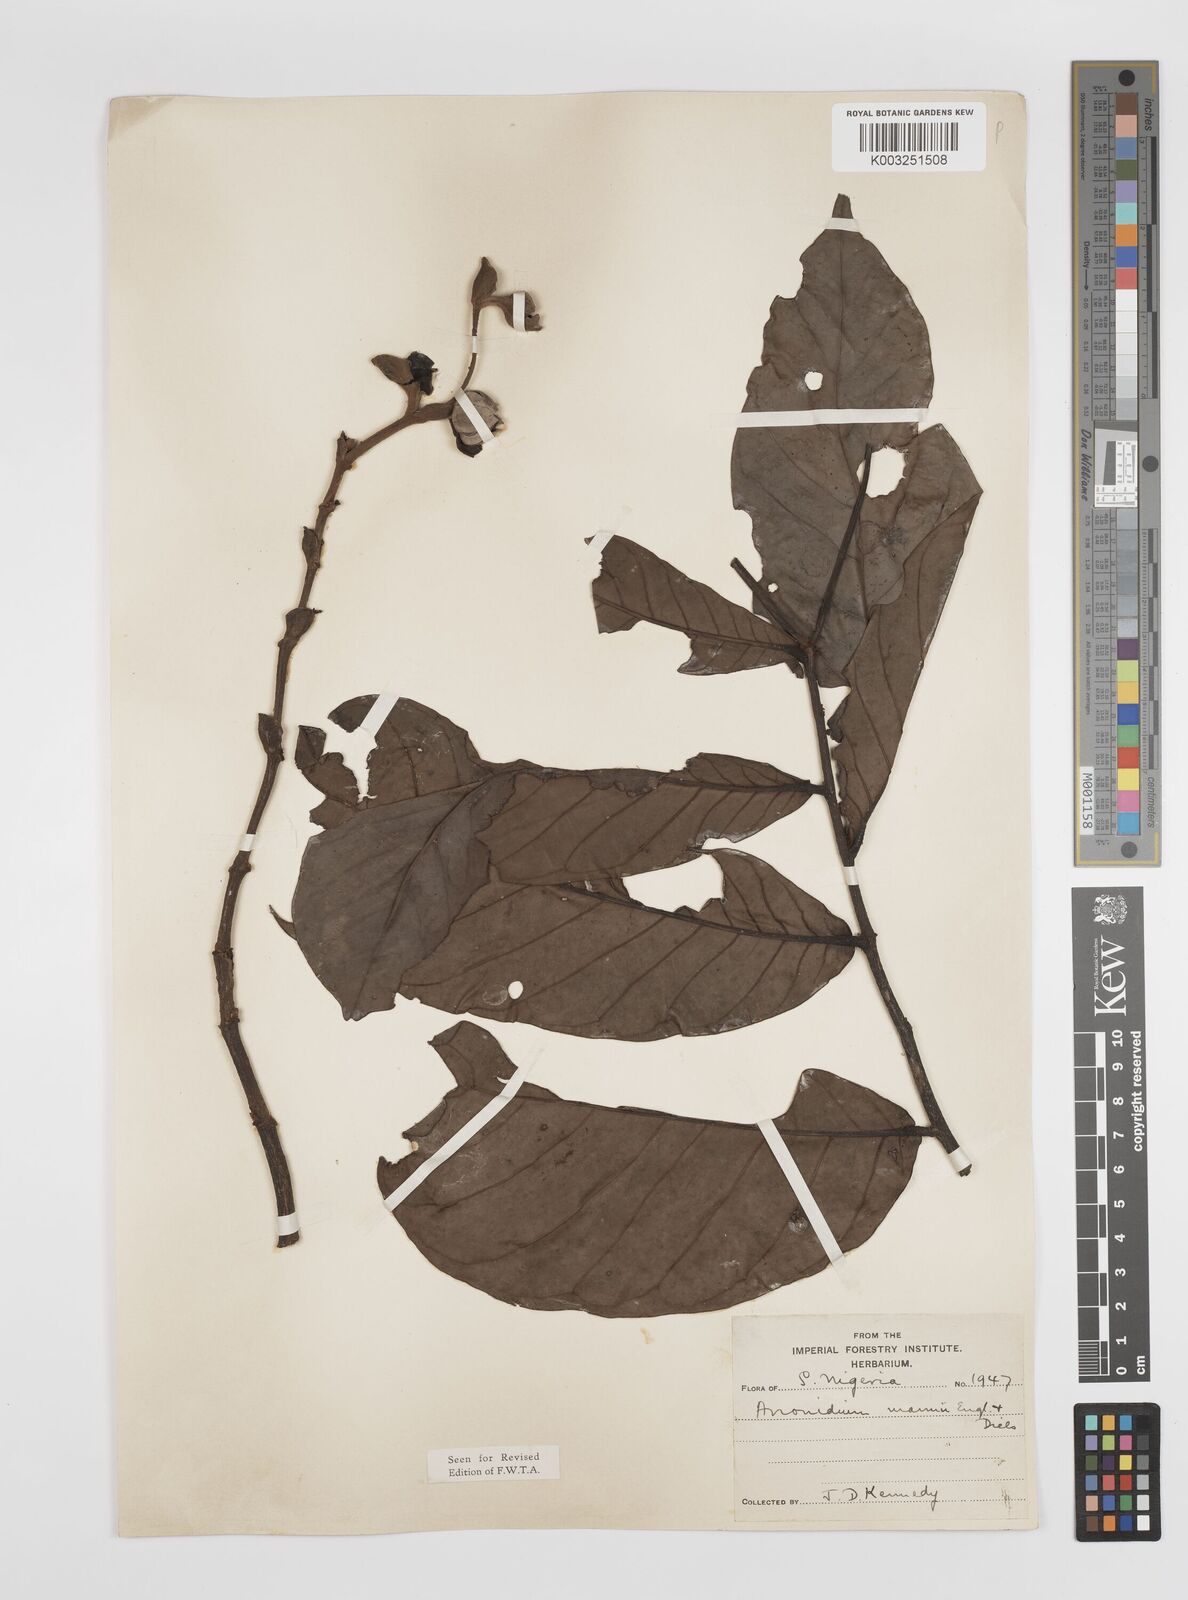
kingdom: Plantae
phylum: Tracheophyta
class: Magnoliopsida
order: Magnoliales
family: Annonaceae
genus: Anonidium
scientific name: Anonidium mannii
